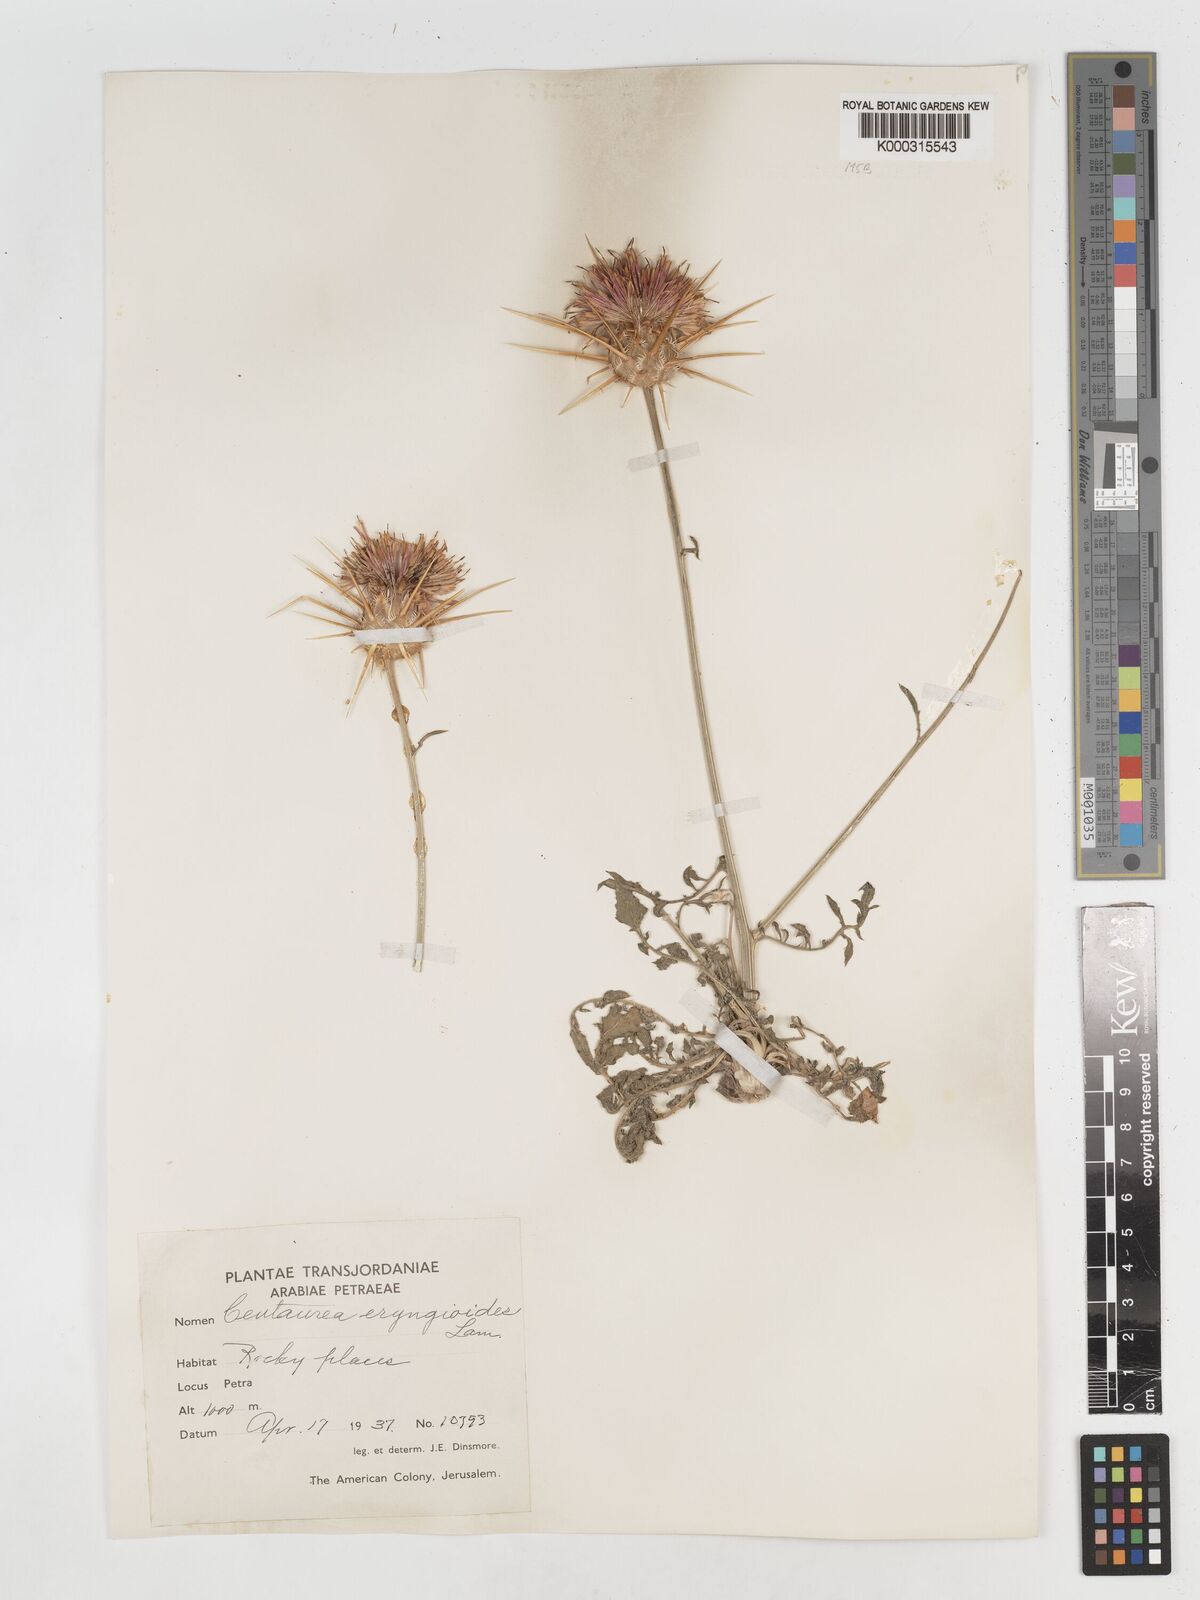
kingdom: Plantae
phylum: Tracheophyta
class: Magnoliopsida
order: Asterales
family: Asteraceae
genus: Centaurea
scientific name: Centaurea eryngioides
